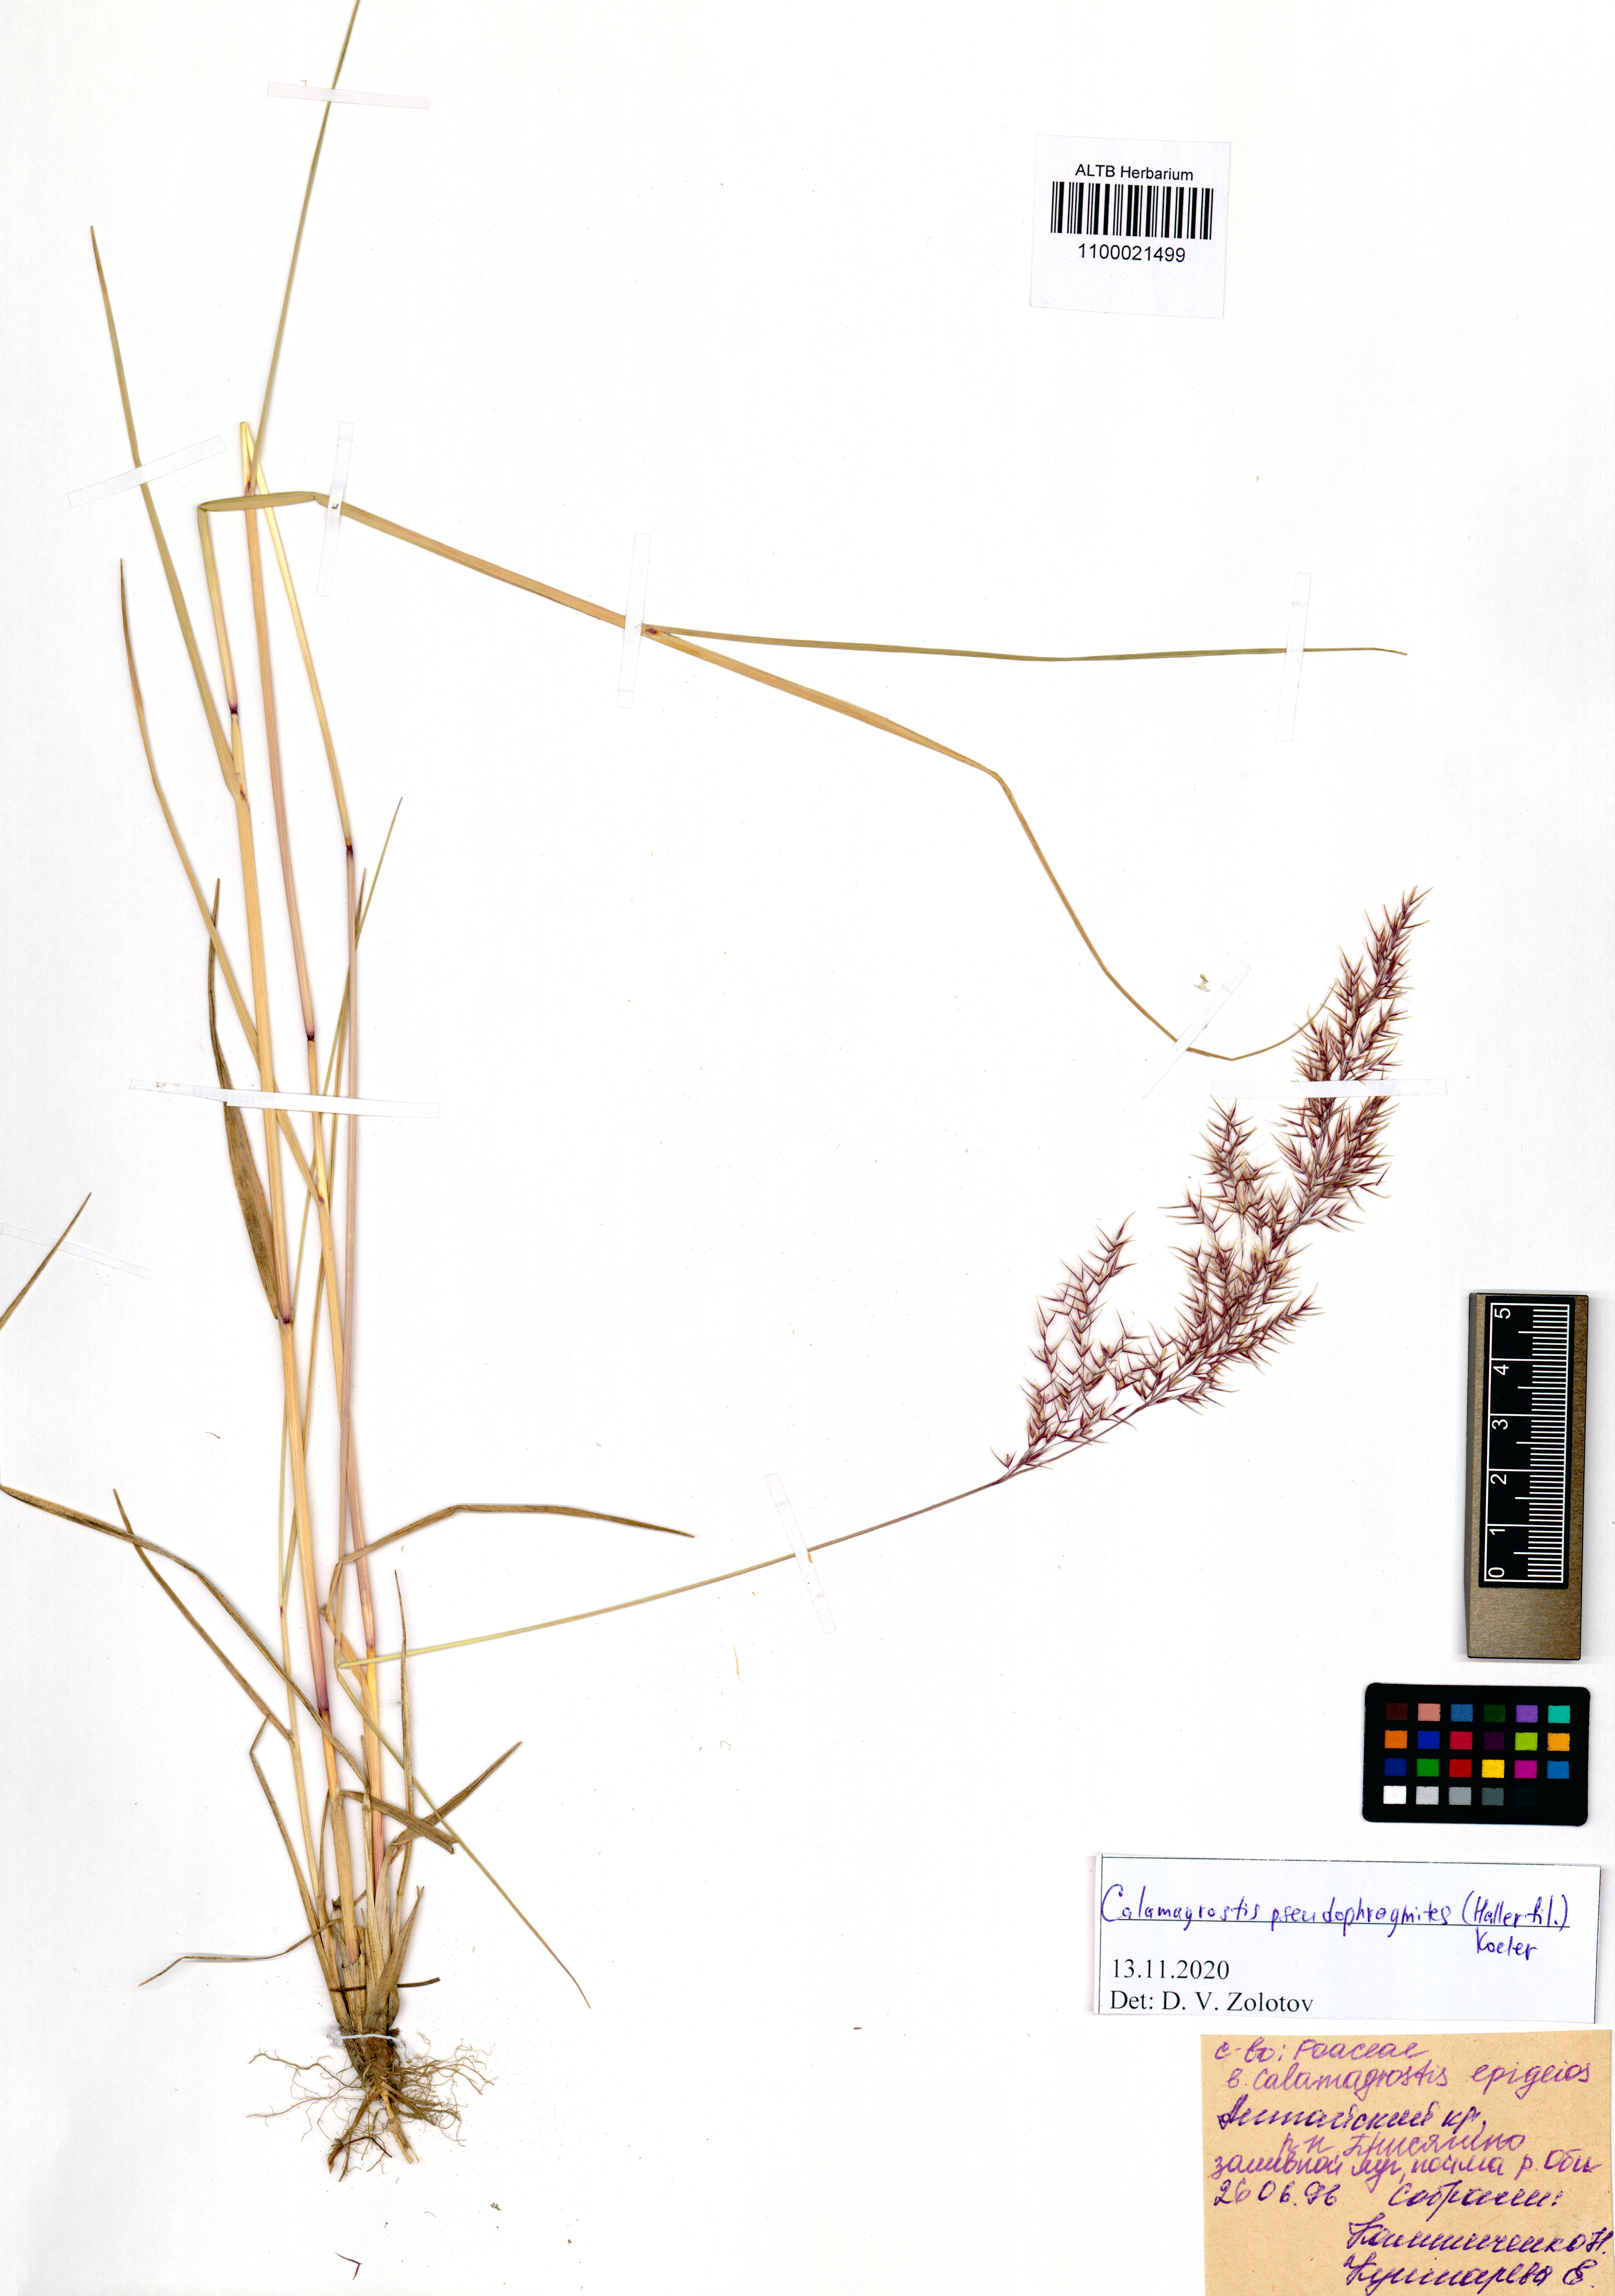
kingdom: Plantae
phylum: Tracheophyta
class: Liliopsida
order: Poales
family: Poaceae
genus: Calamagrostis
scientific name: Calamagrostis pseudophragmites
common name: Coastal small-reed
